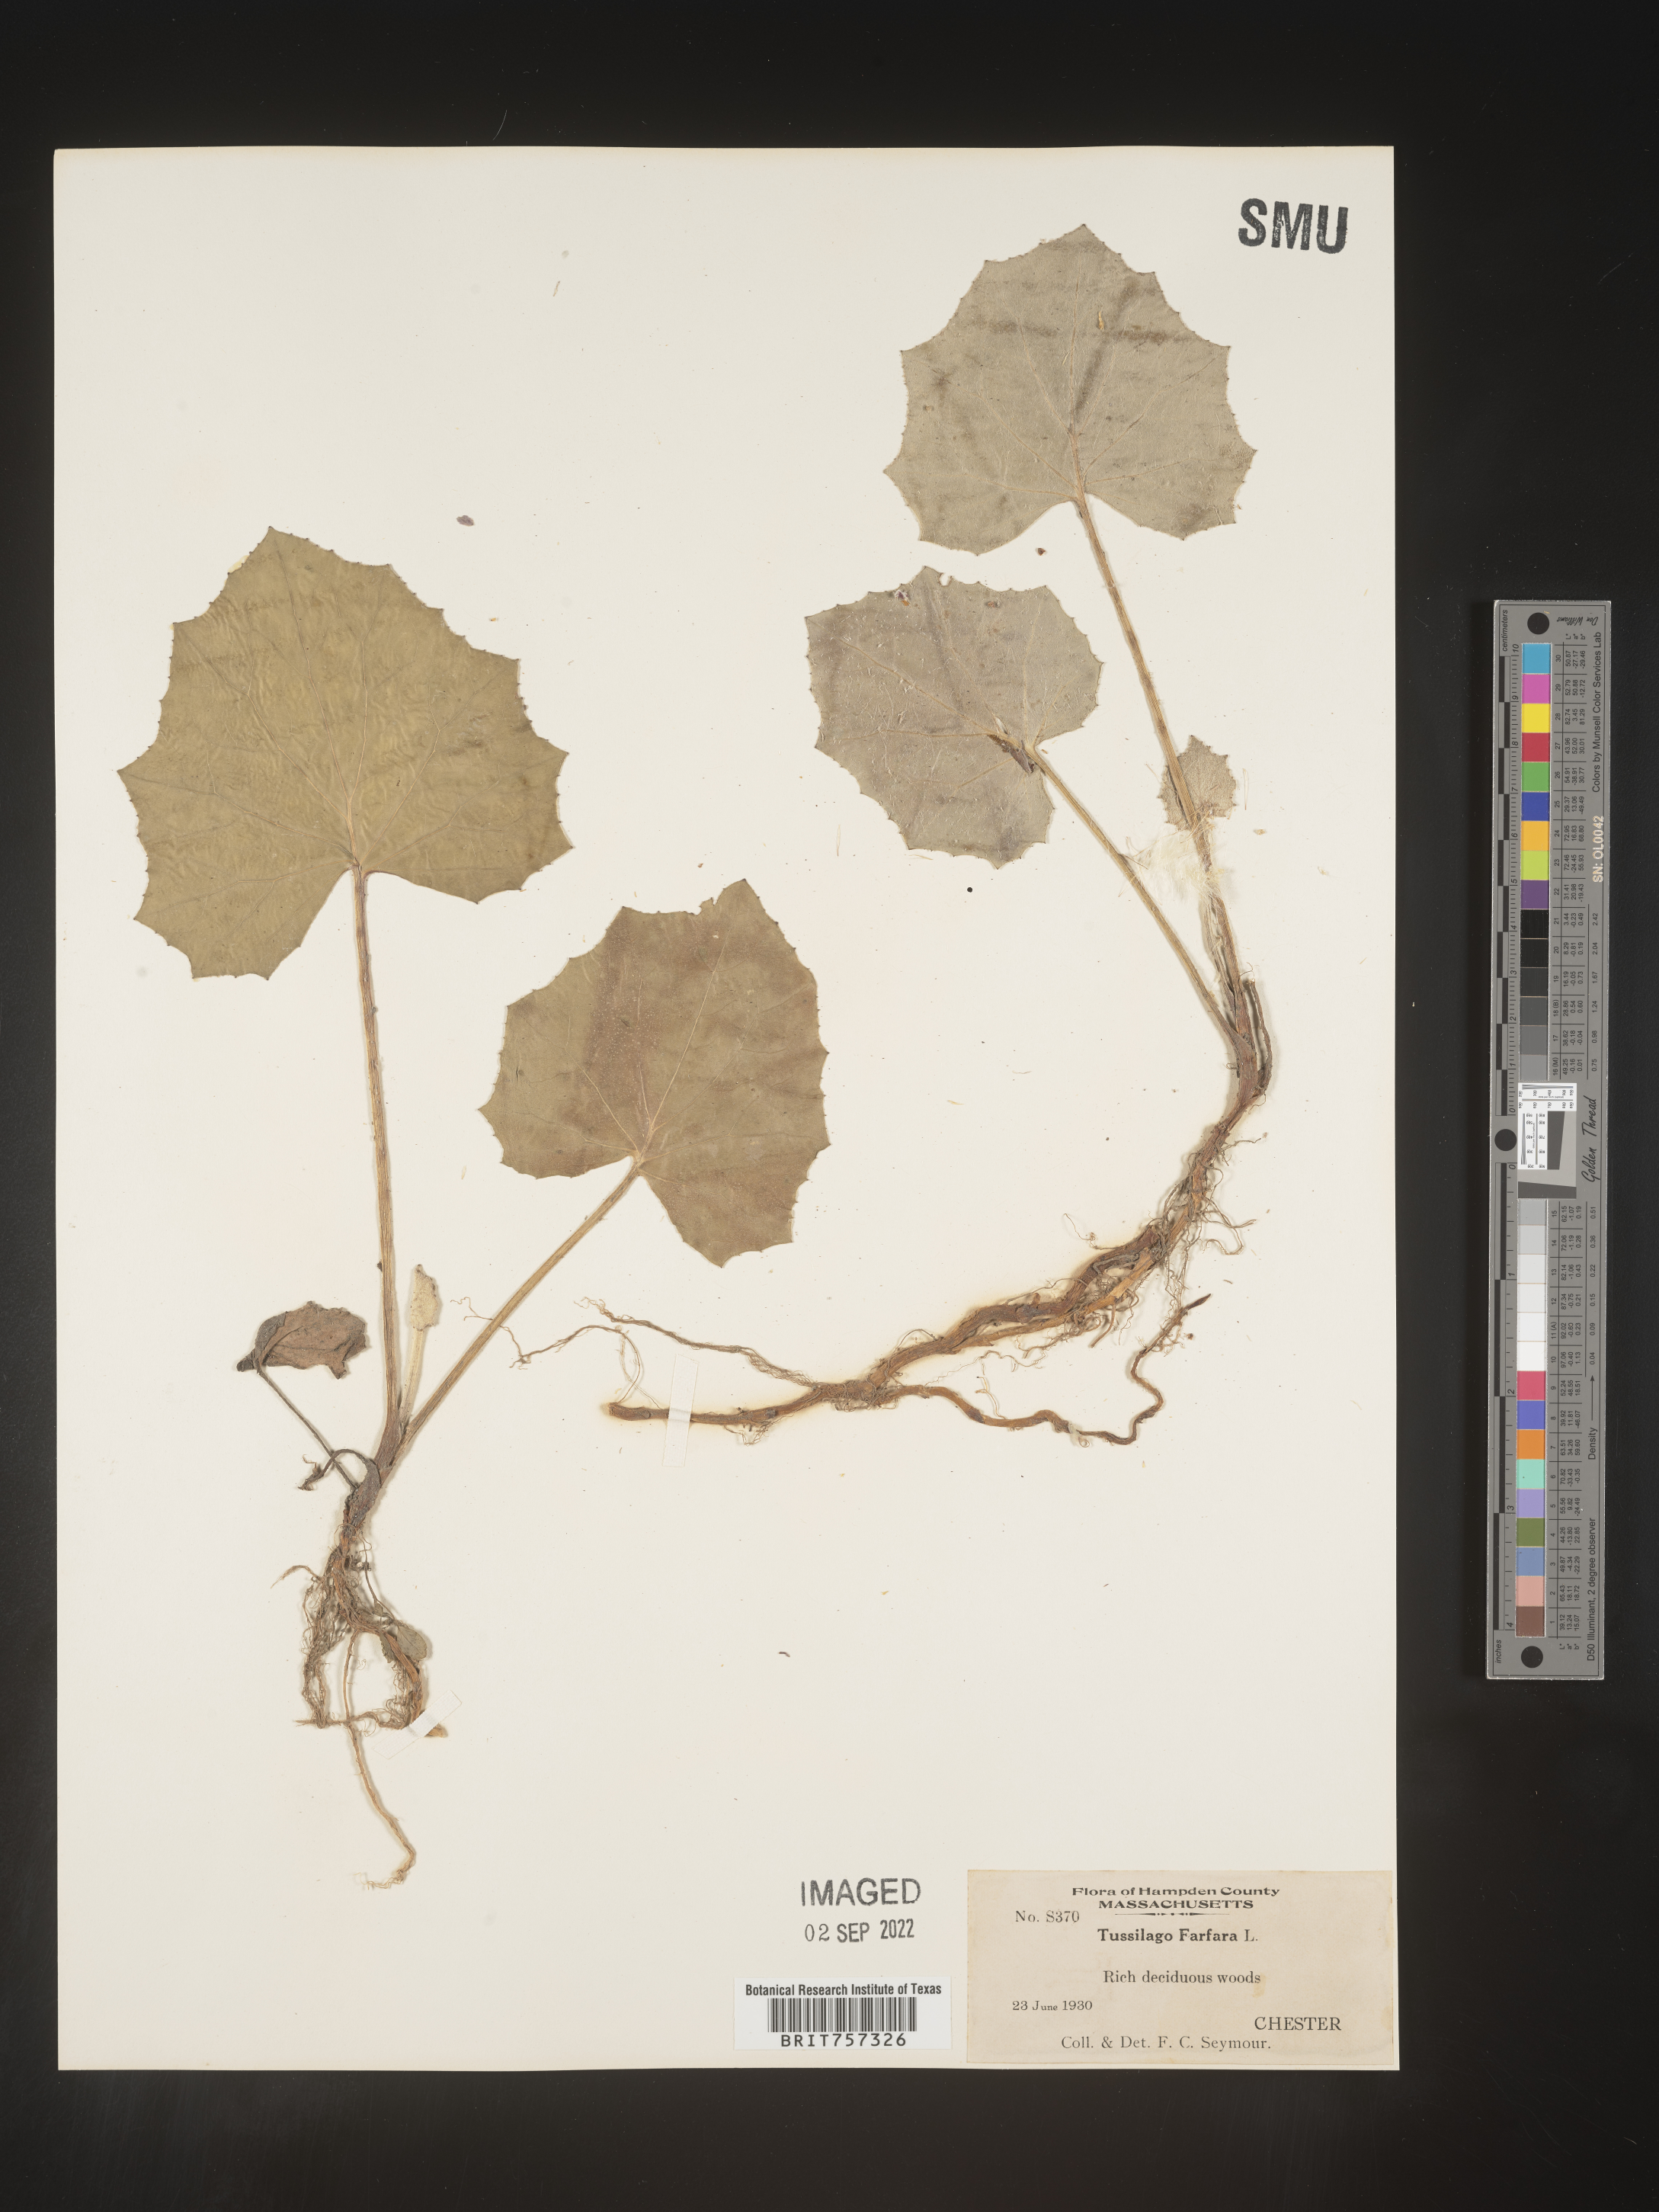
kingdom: Plantae
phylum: Tracheophyta
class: Magnoliopsida
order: Asterales
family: Asteraceae
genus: Tussilago
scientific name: Tussilago
